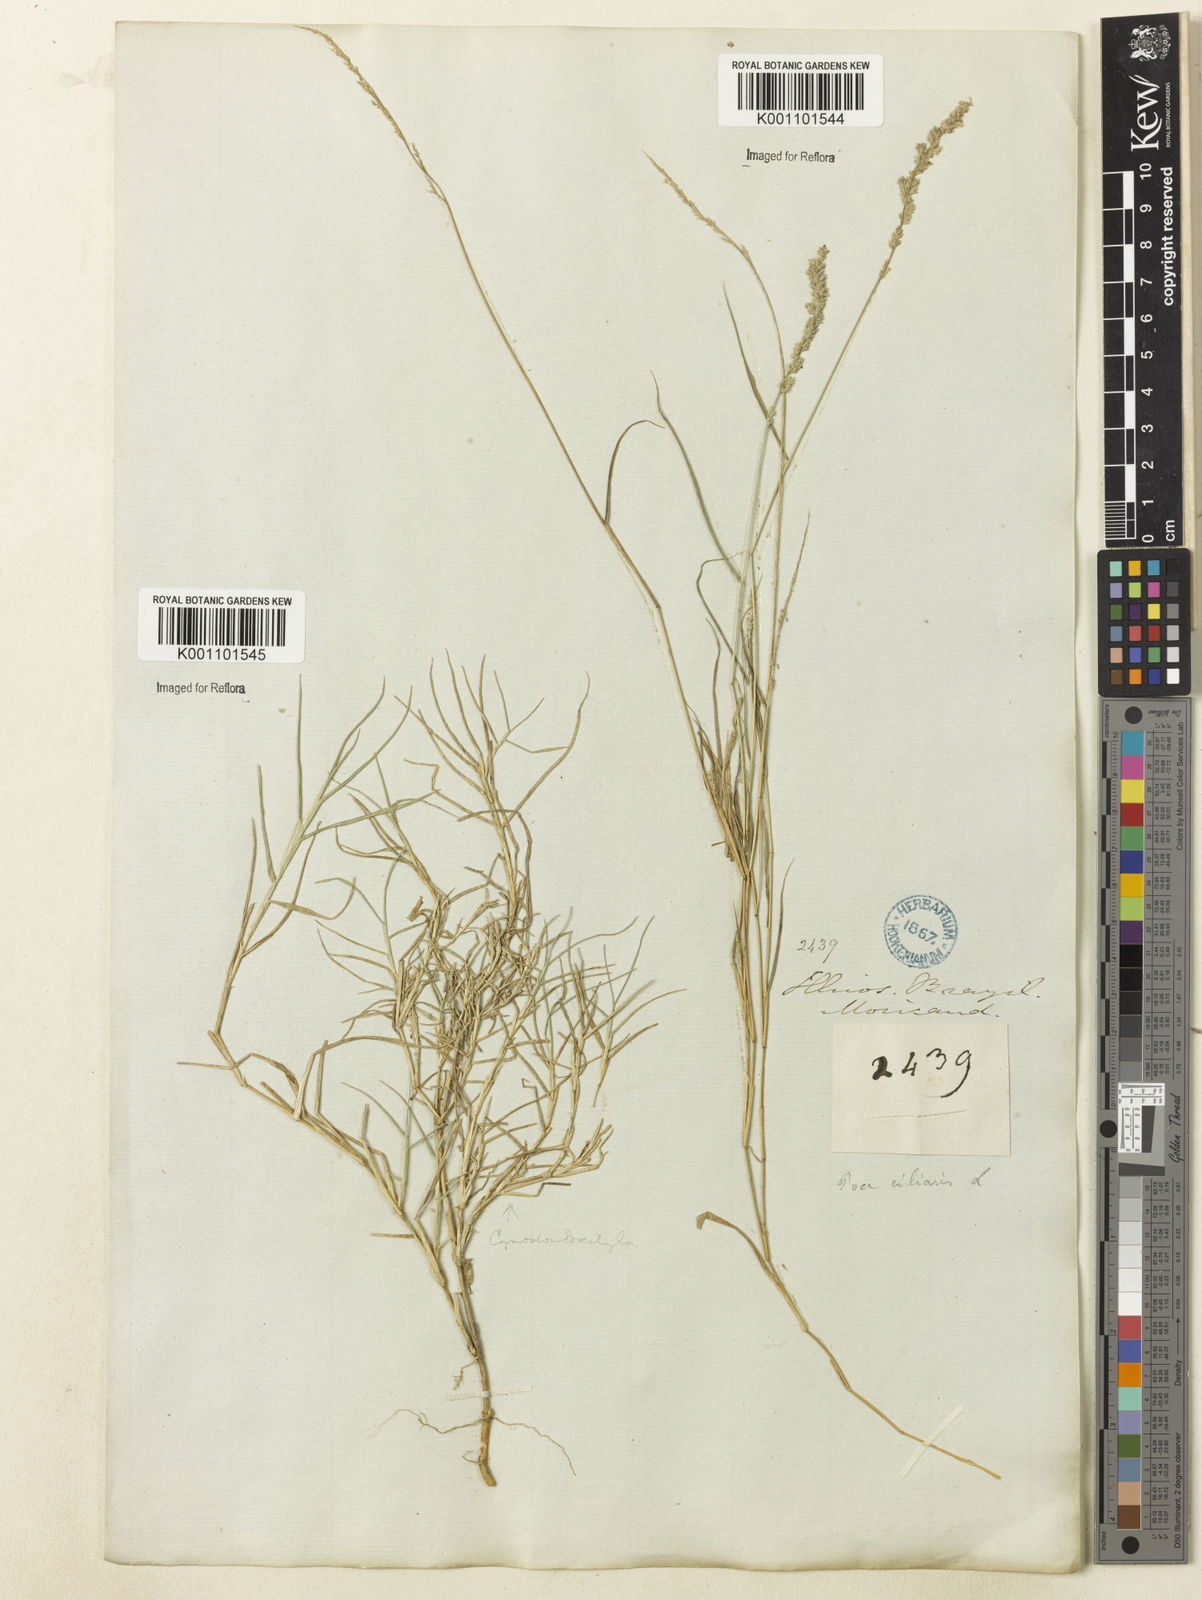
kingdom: Plantae
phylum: Tracheophyta
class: Liliopsida
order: Poales
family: Poaceae
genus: Eragrostis
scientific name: Eragrostis ciliaris
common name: Gophertail lovegrass
